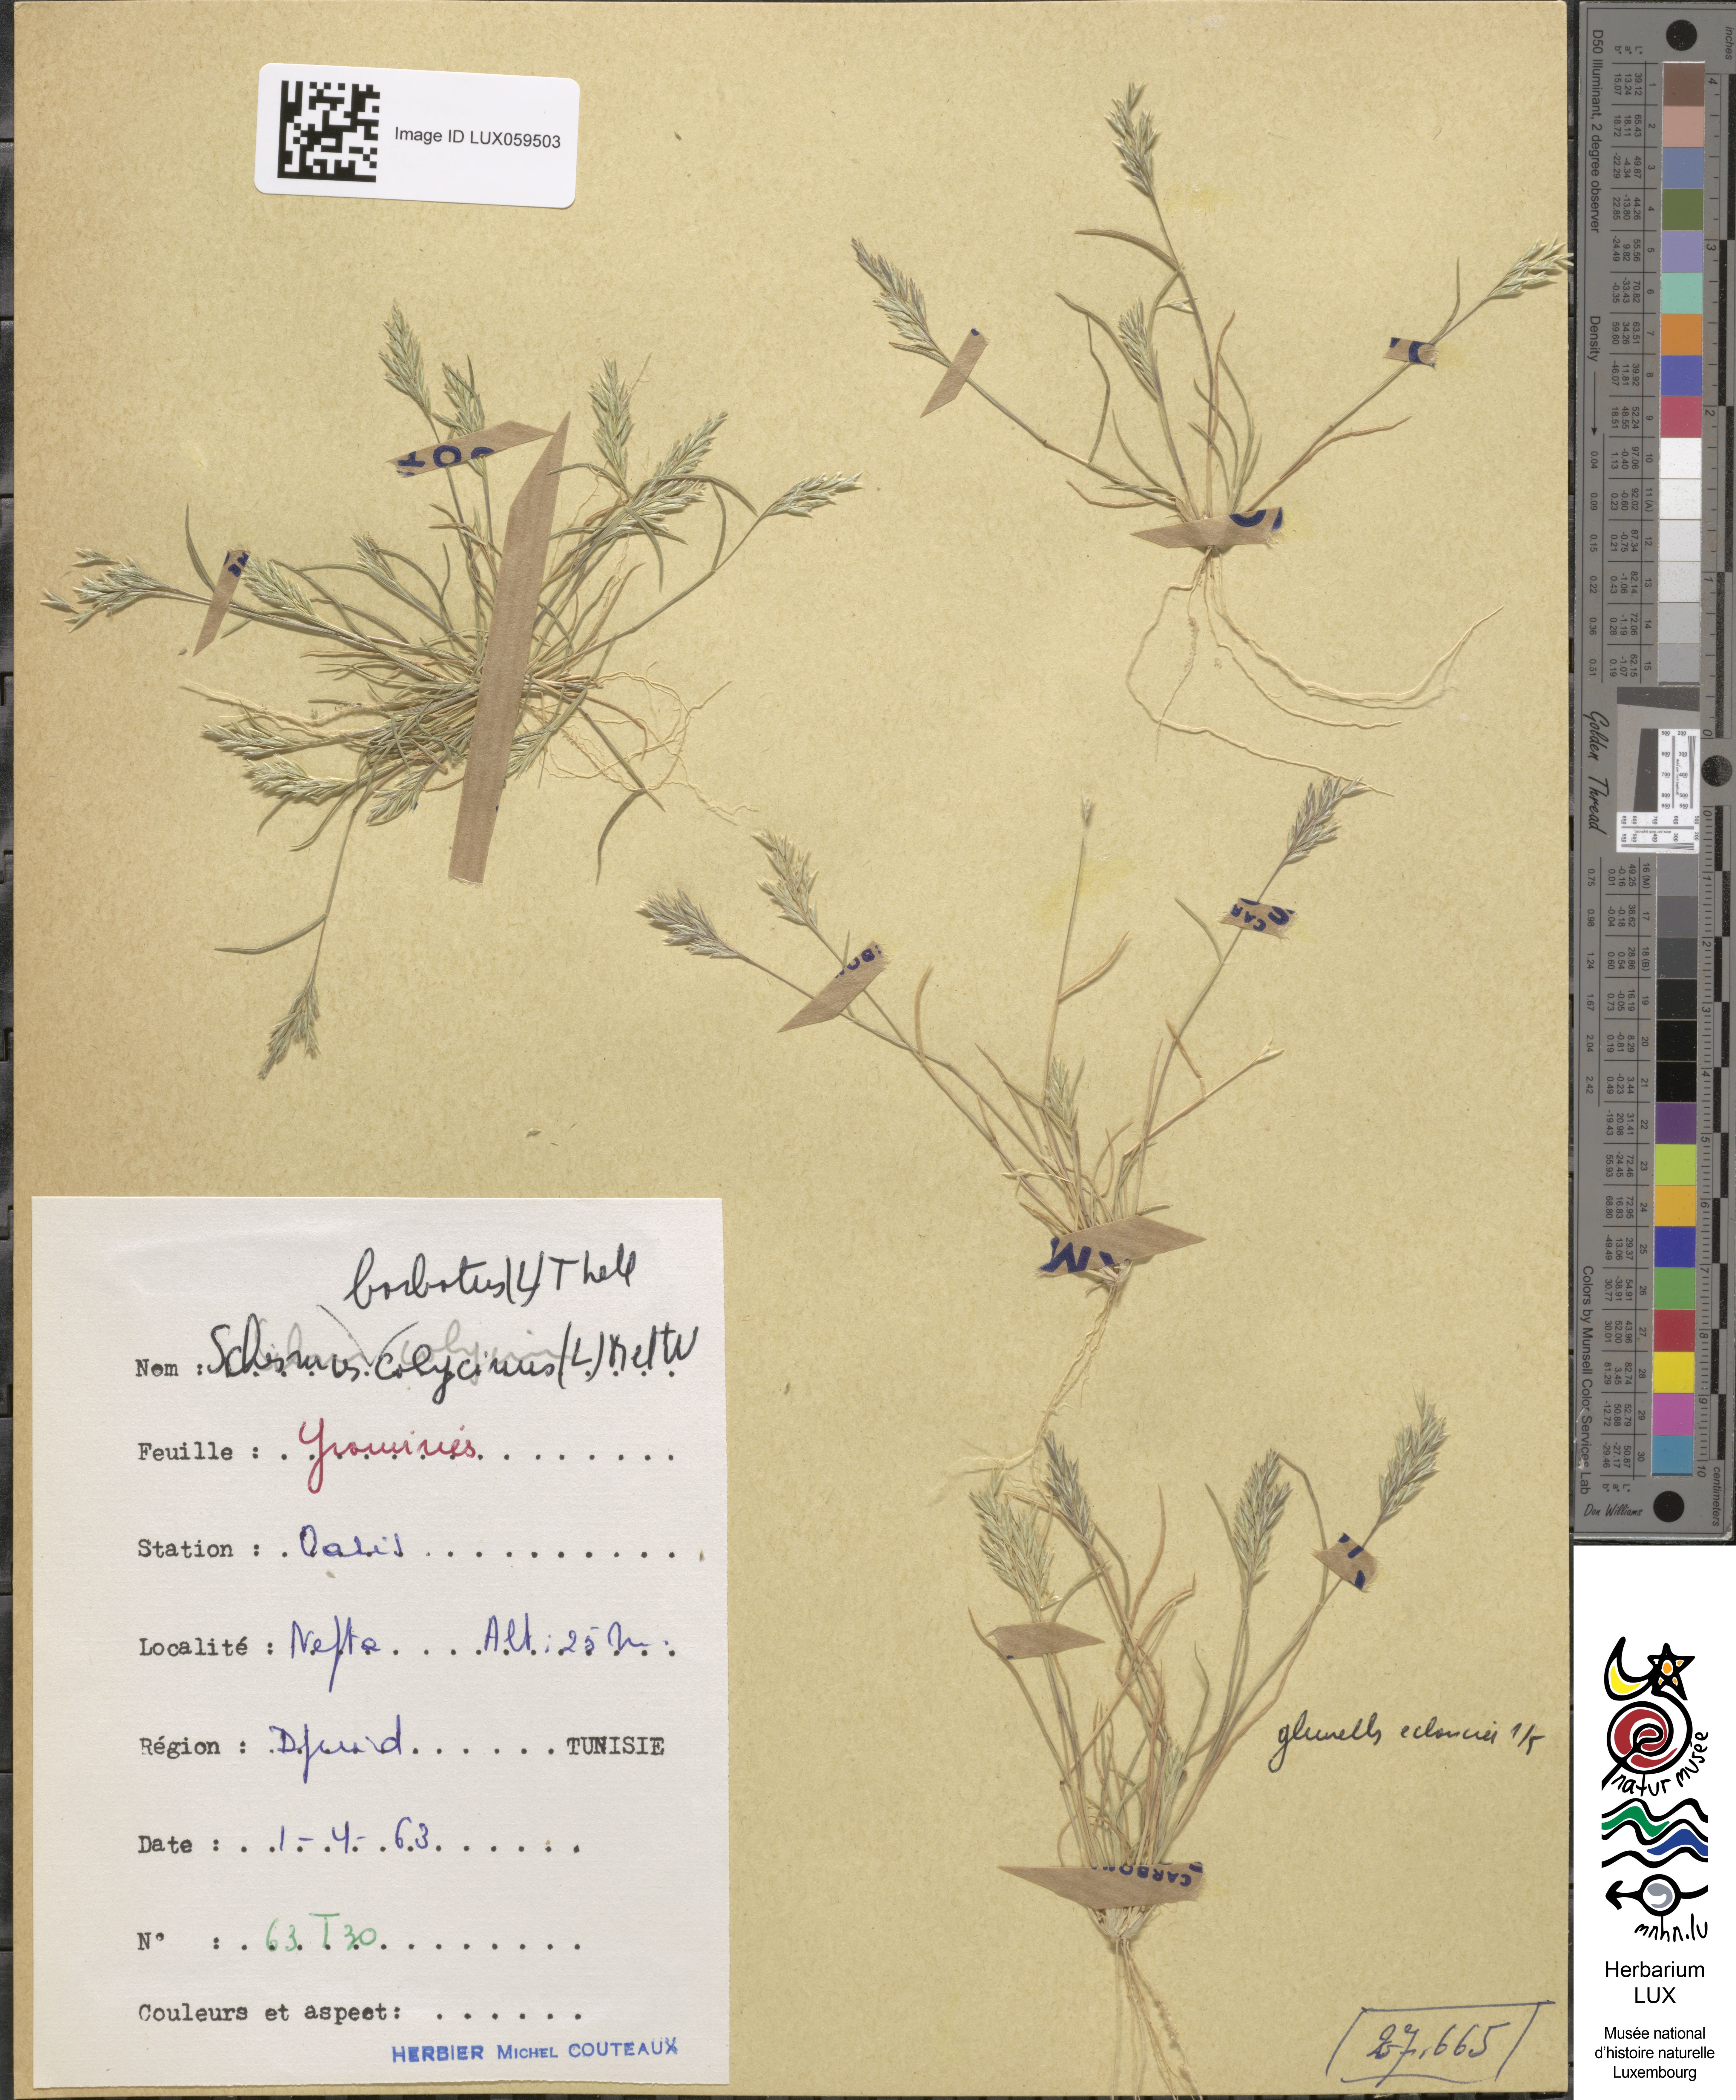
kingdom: Plantae
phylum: Tracheophyta
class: Liliopsida
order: Poales
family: Poaceae
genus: Schismus
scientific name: Schismus barbatus
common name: Kelch-grass
